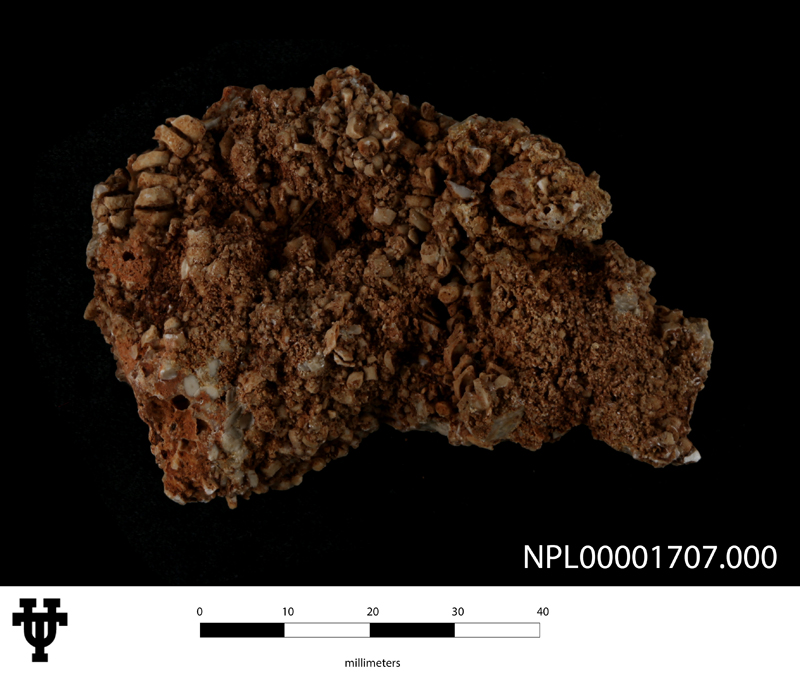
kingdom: Animalia
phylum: Echinodermata
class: Crinoidea
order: Comatulida
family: Solanocrinitidae
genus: Solanocrinites
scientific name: Solanocrinites
